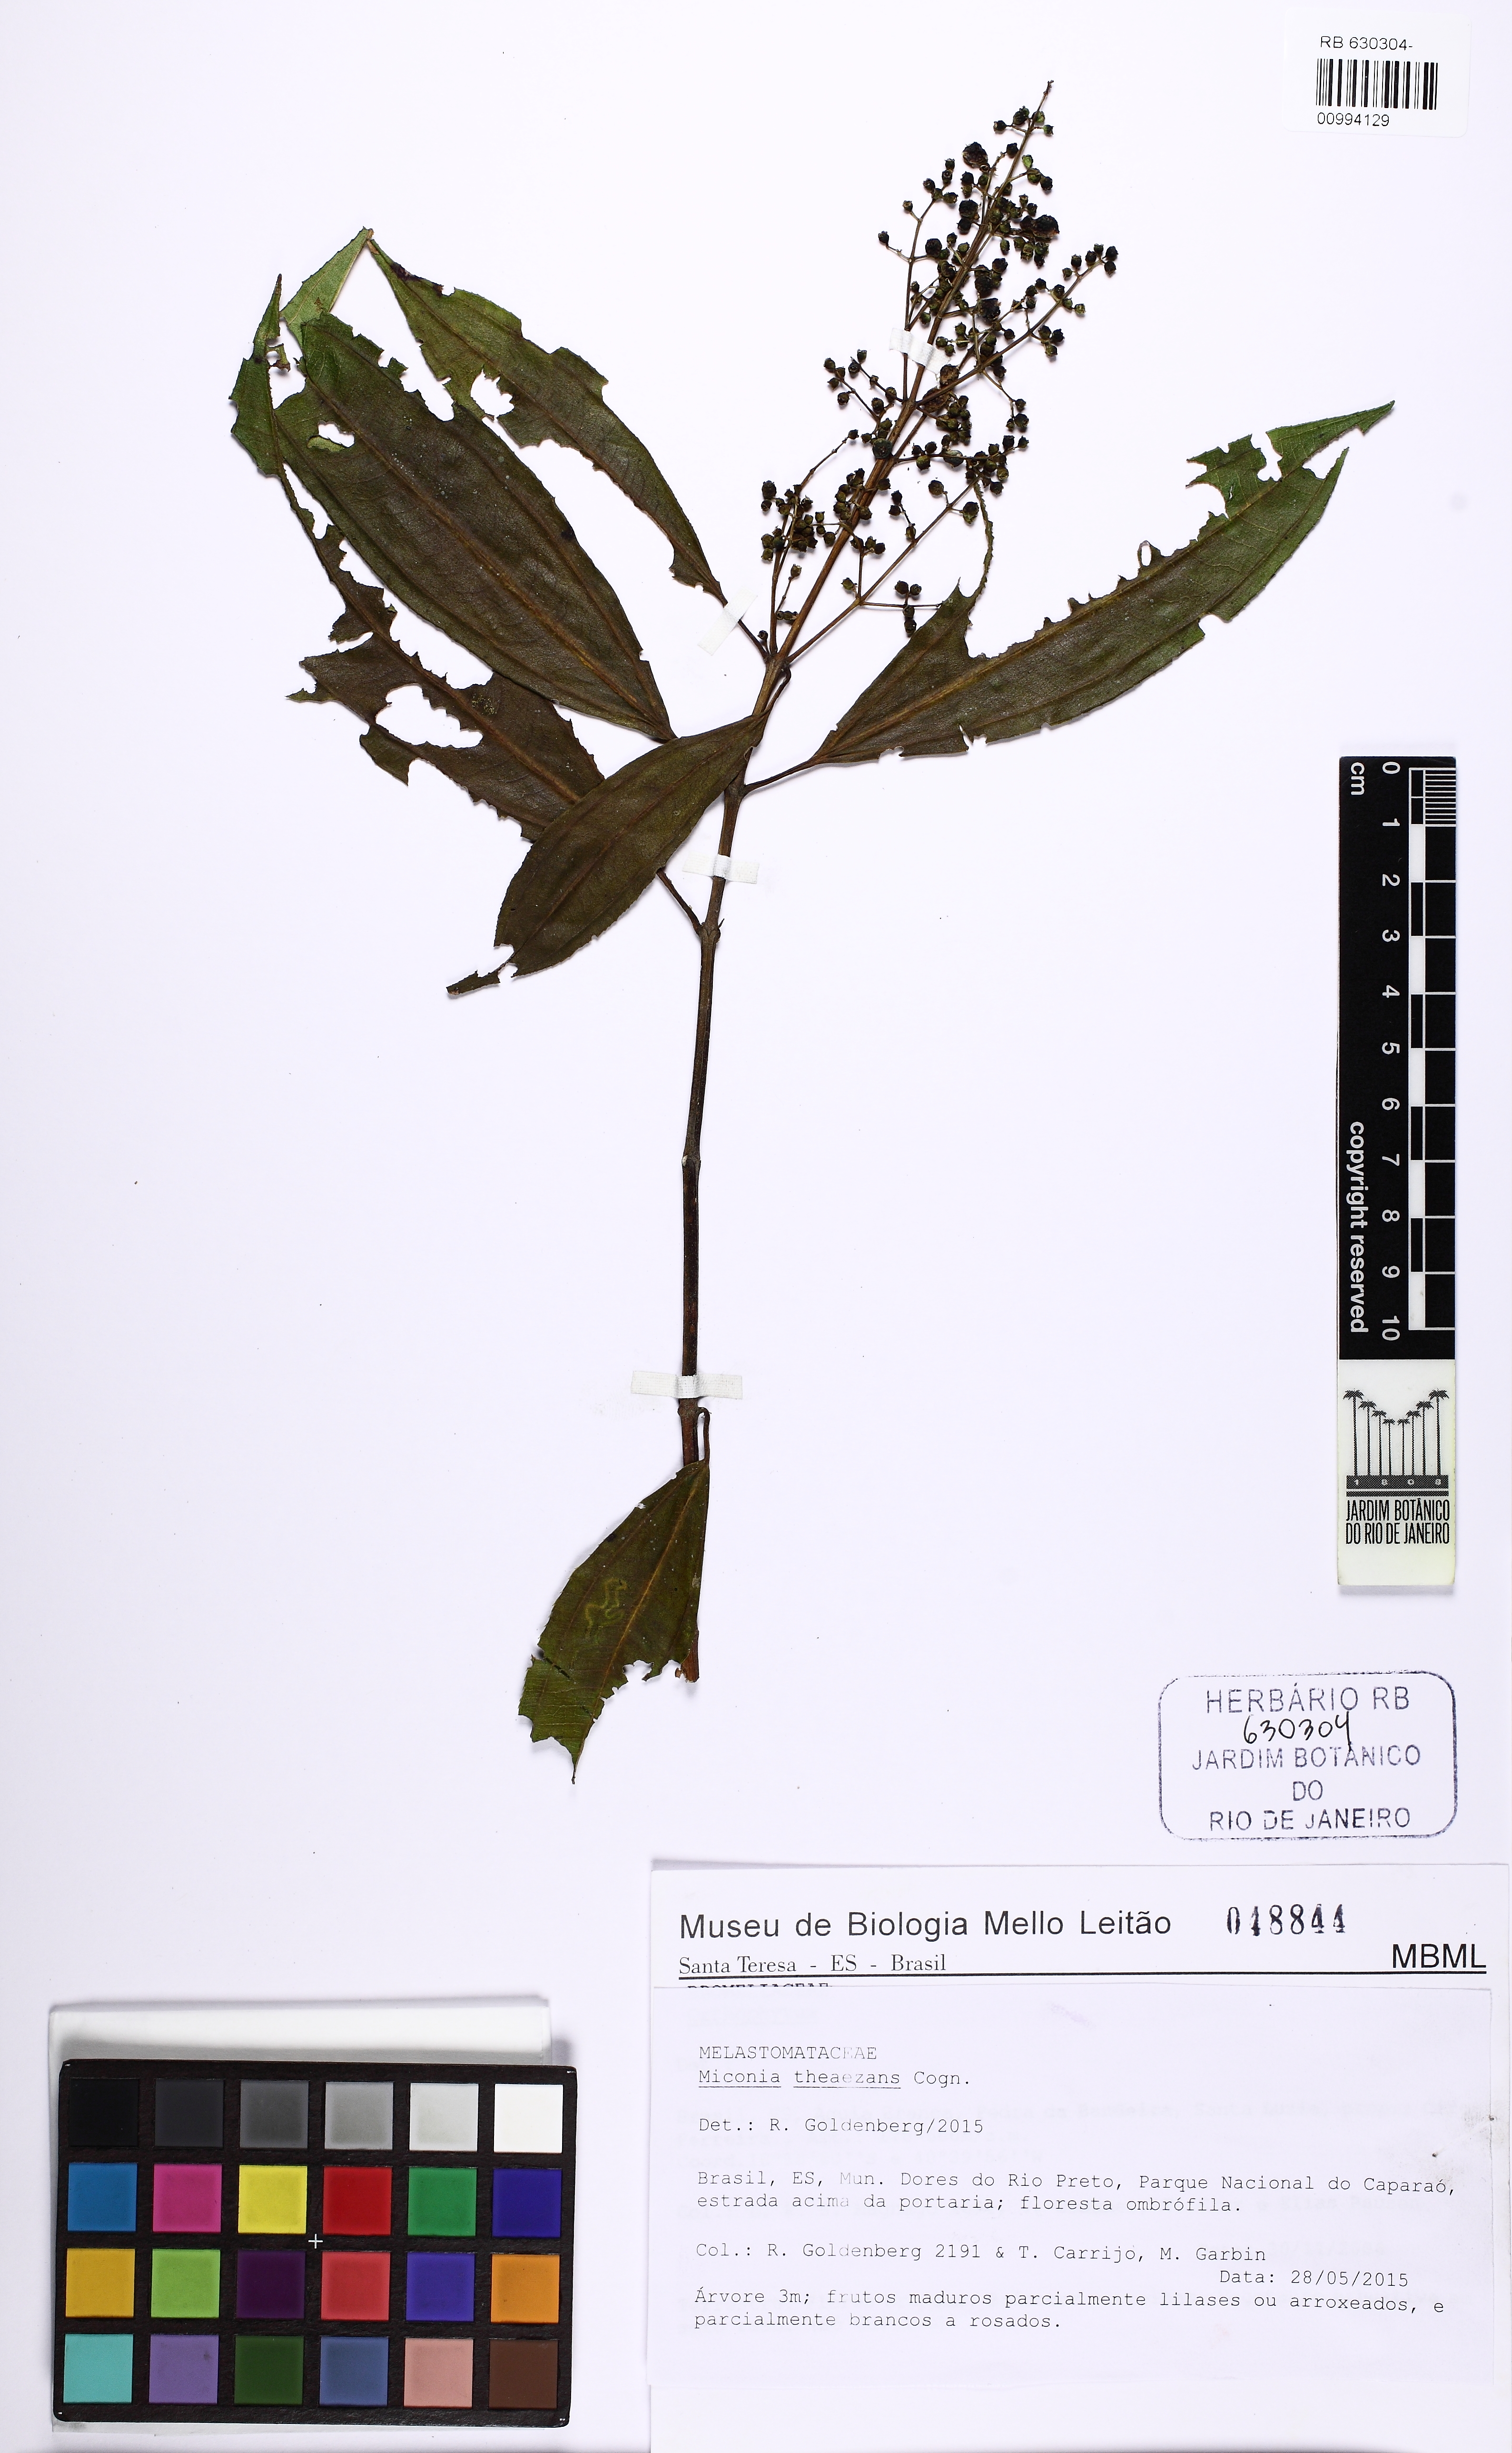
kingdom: Plantae
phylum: Tracheophyta
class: Magnoliopsida
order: Myrtales
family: Melastomataceae
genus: Miconia
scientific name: Miconia theizans
